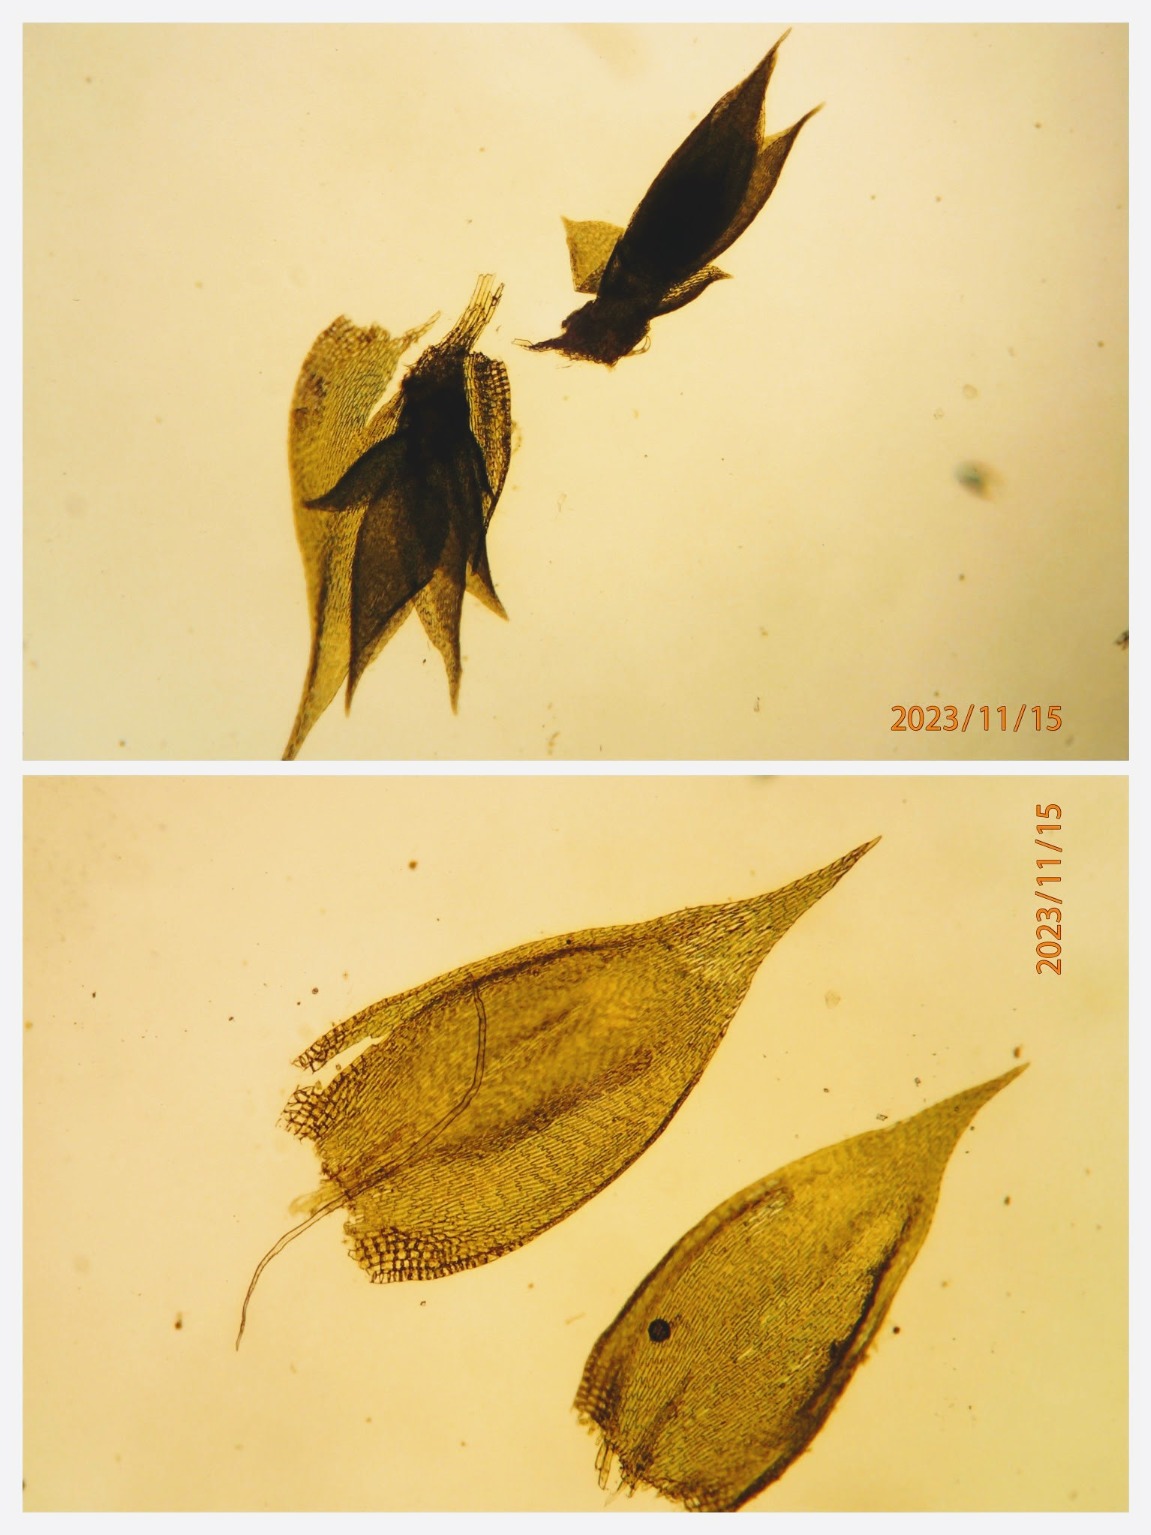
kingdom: Plantae
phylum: Bryophyta
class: Bryopsida
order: Hypnales
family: Pylaisiadelphaceae
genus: Platygyrium
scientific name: Platygyrium repens
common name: Mørk yngleknop
